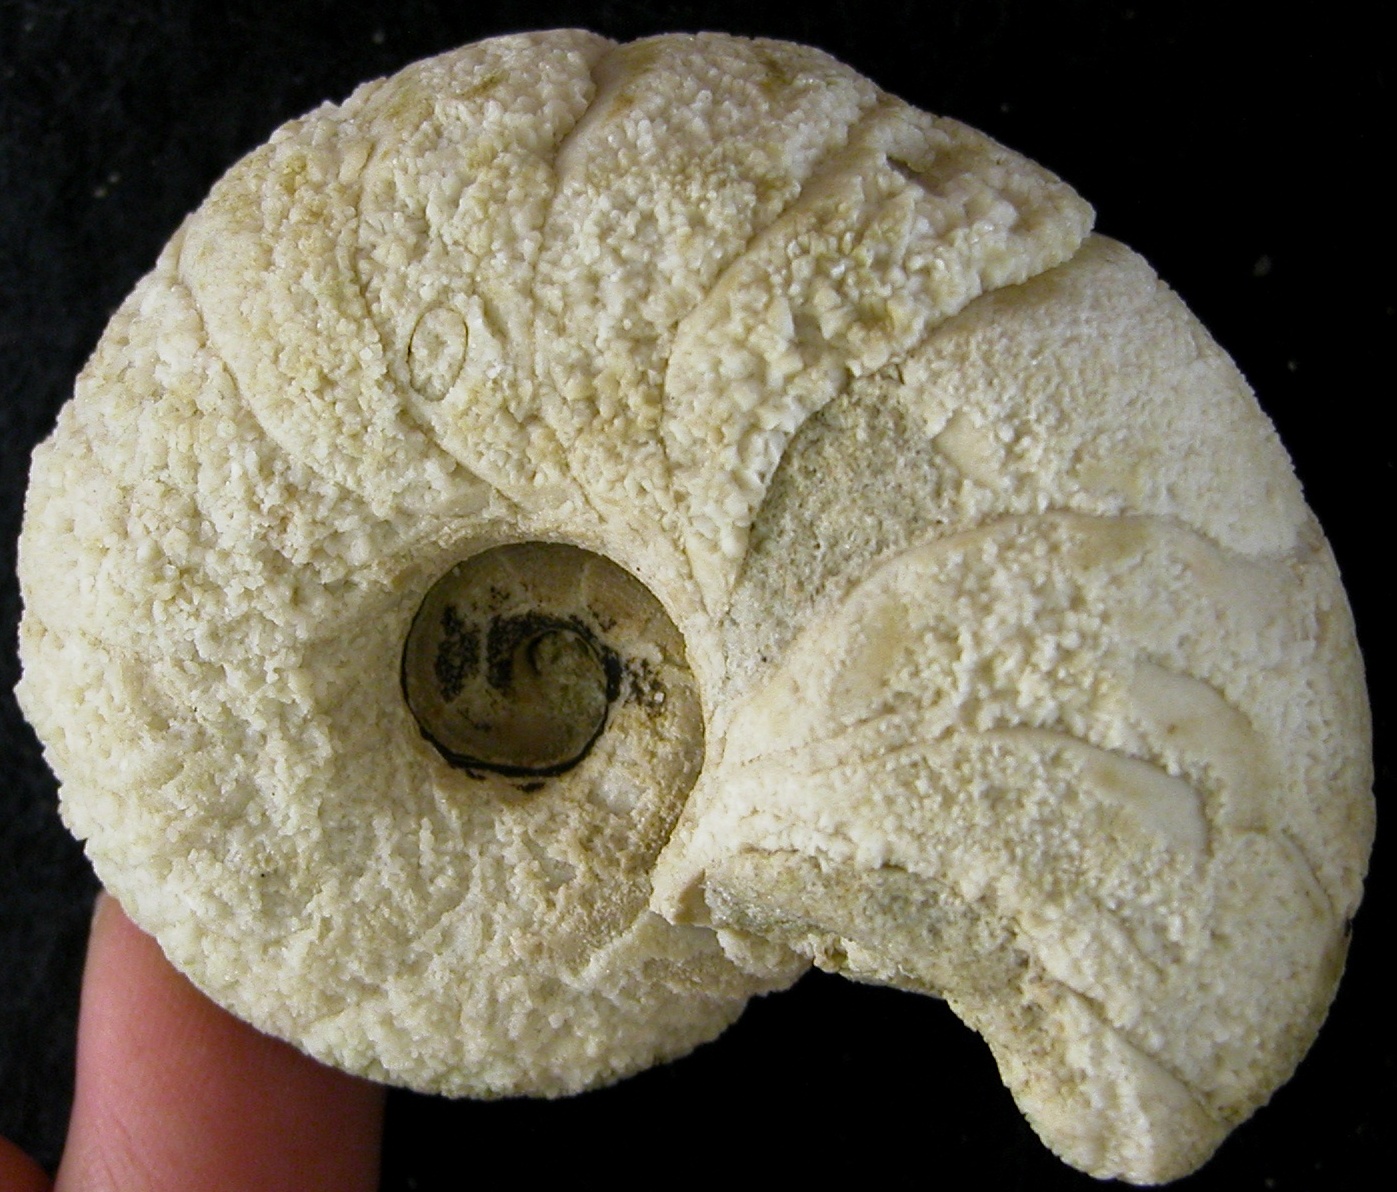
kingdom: Animalia
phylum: Mollusca
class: Cephalopoda
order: Nautilida
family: Nautilidae
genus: Cenoceras
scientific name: Cenoceras
